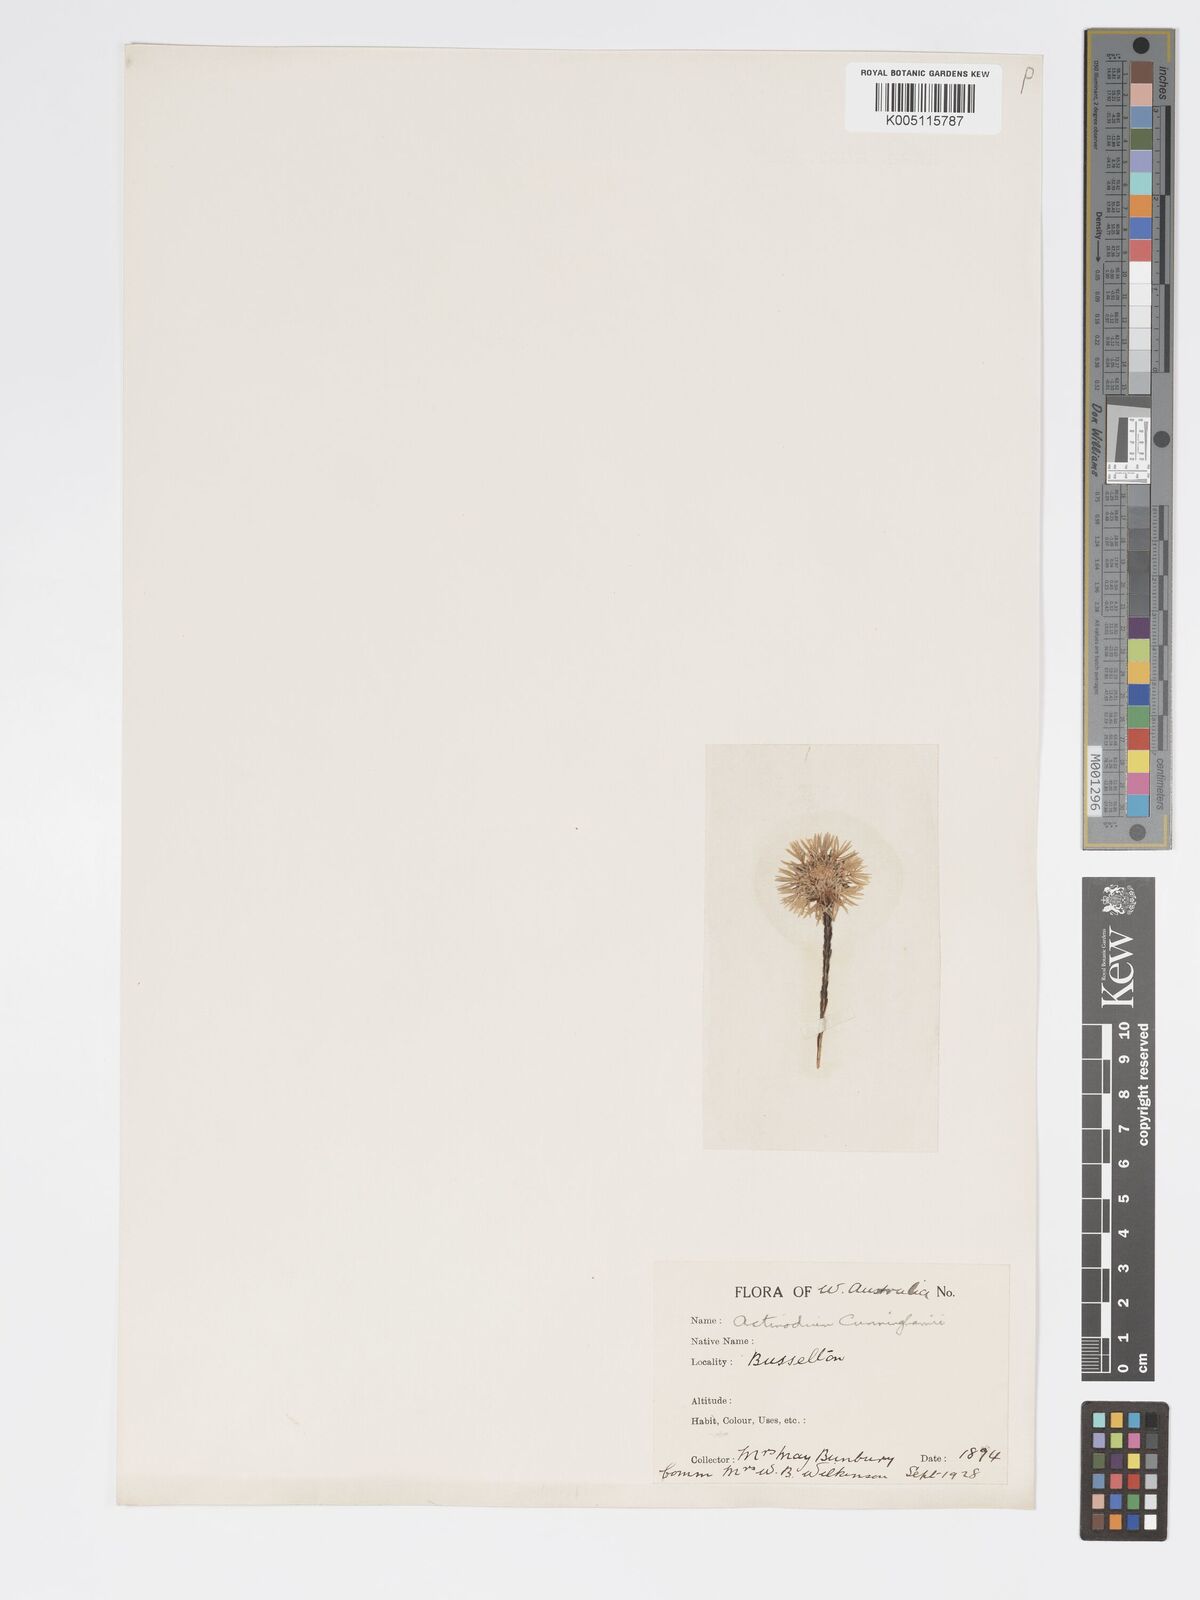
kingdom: Plantae
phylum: Tracheophyta
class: Magnoliopsida
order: Myrtales
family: Myrtaceae
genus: Actinodium
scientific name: Actinodium cunninghamii
